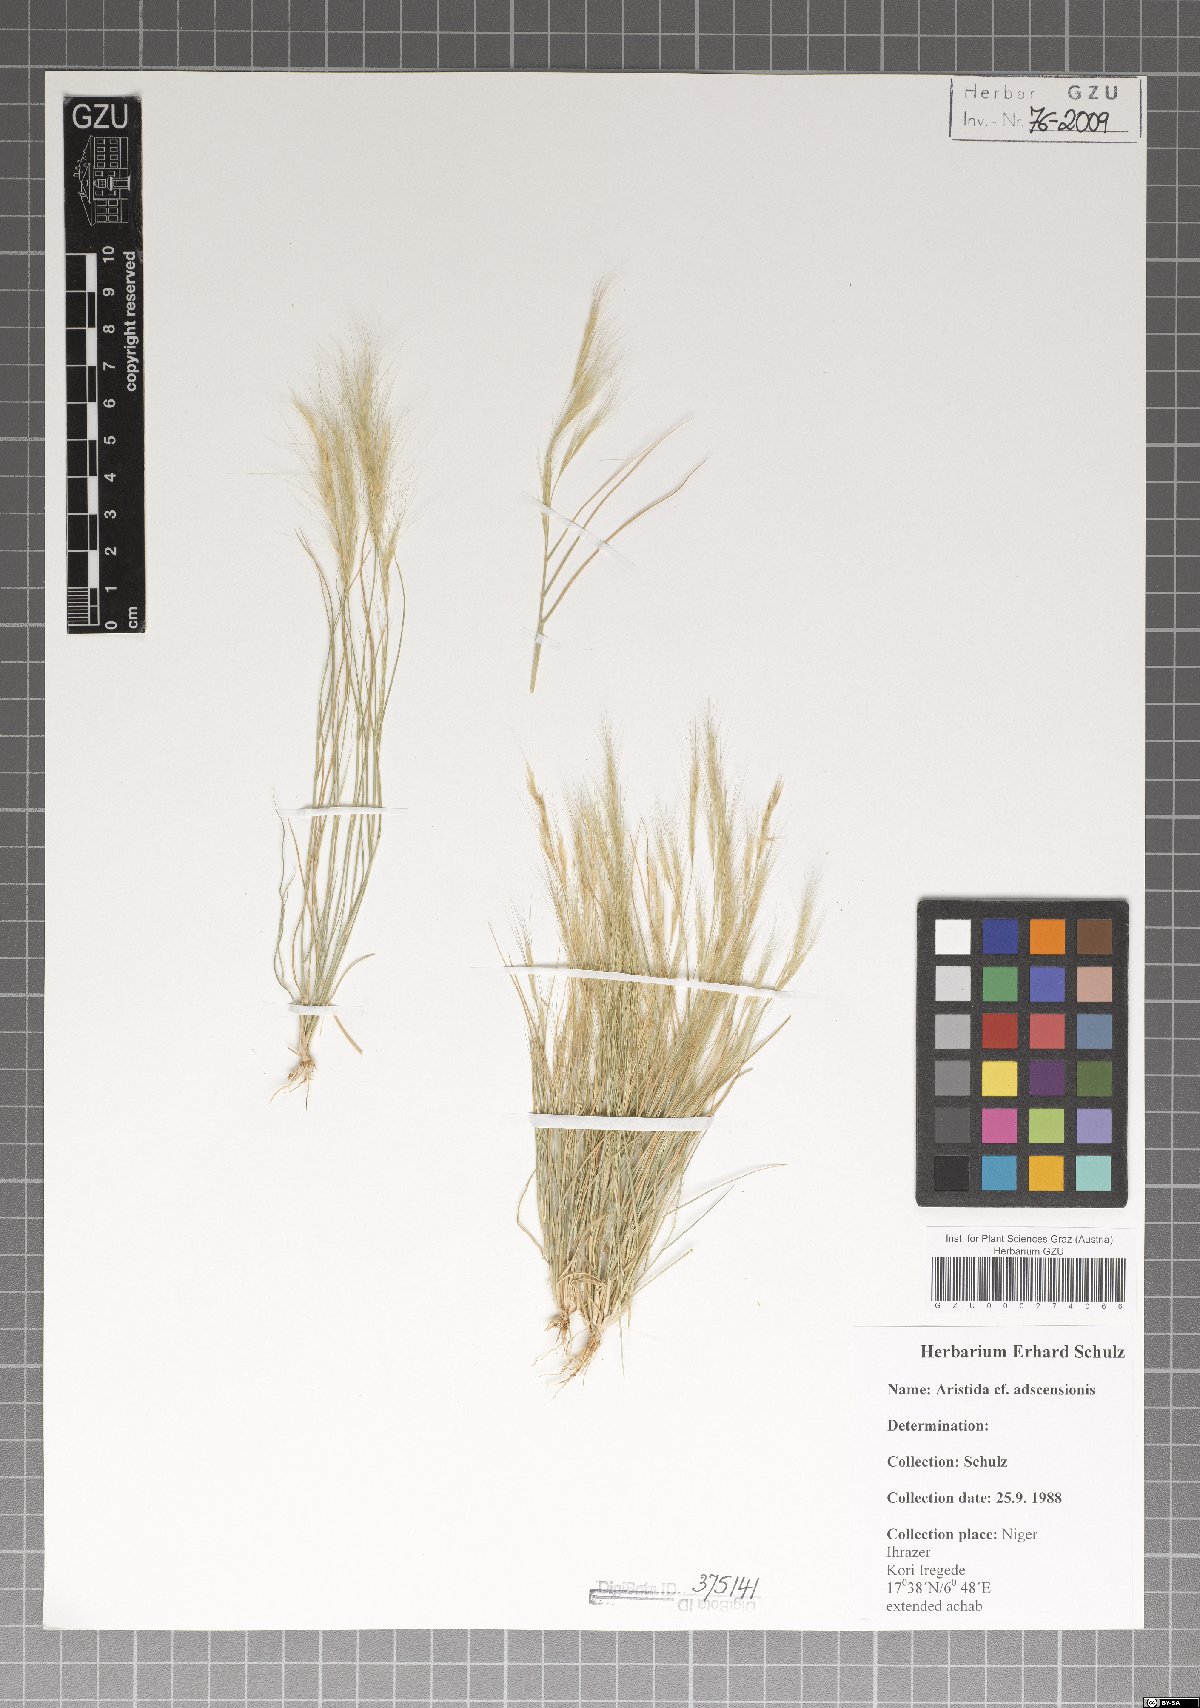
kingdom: Plantae
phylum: Tracheophyta
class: Liliopsida
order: Poales
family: Poaceae
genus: Aristida
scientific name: Aristida adscensionis
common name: Sixweeks threeawn
